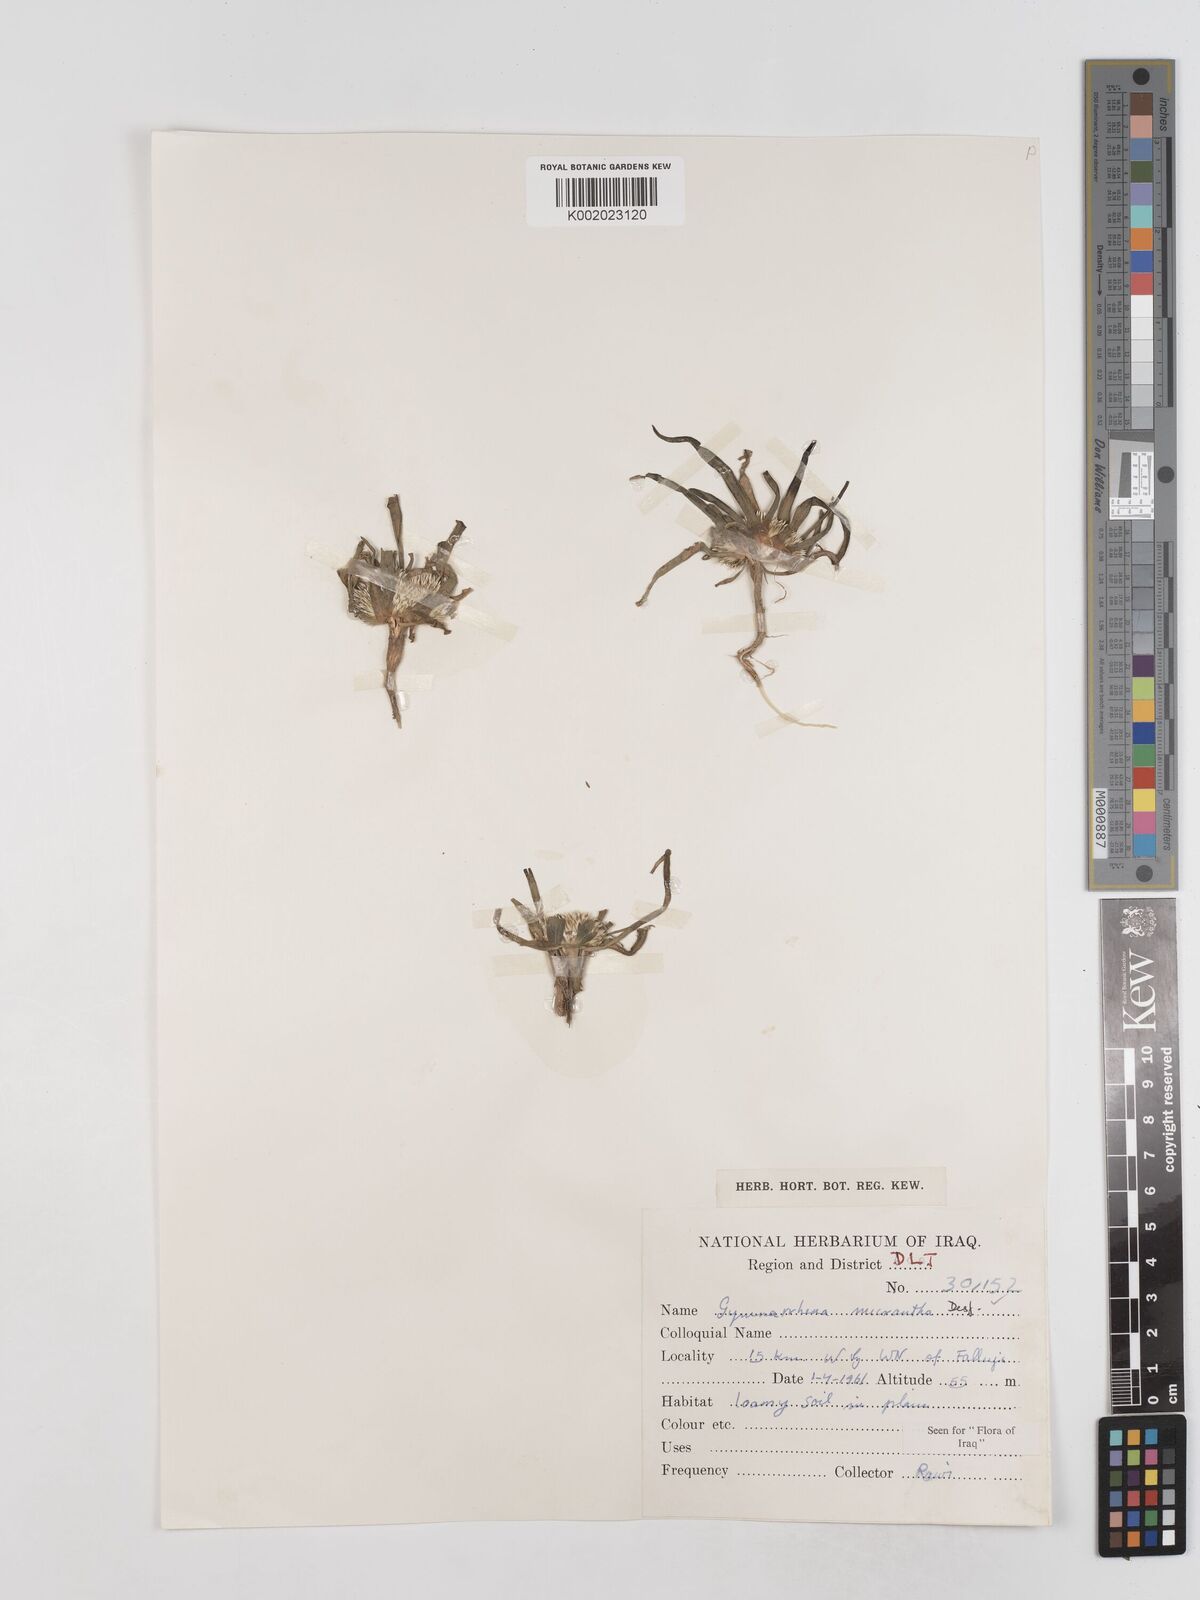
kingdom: Plantae
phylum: Tracheophyta
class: Magnoliopsida
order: Asterales
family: Asteraceae
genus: Gymnarrhena
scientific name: Gymnarrhena micrantha
